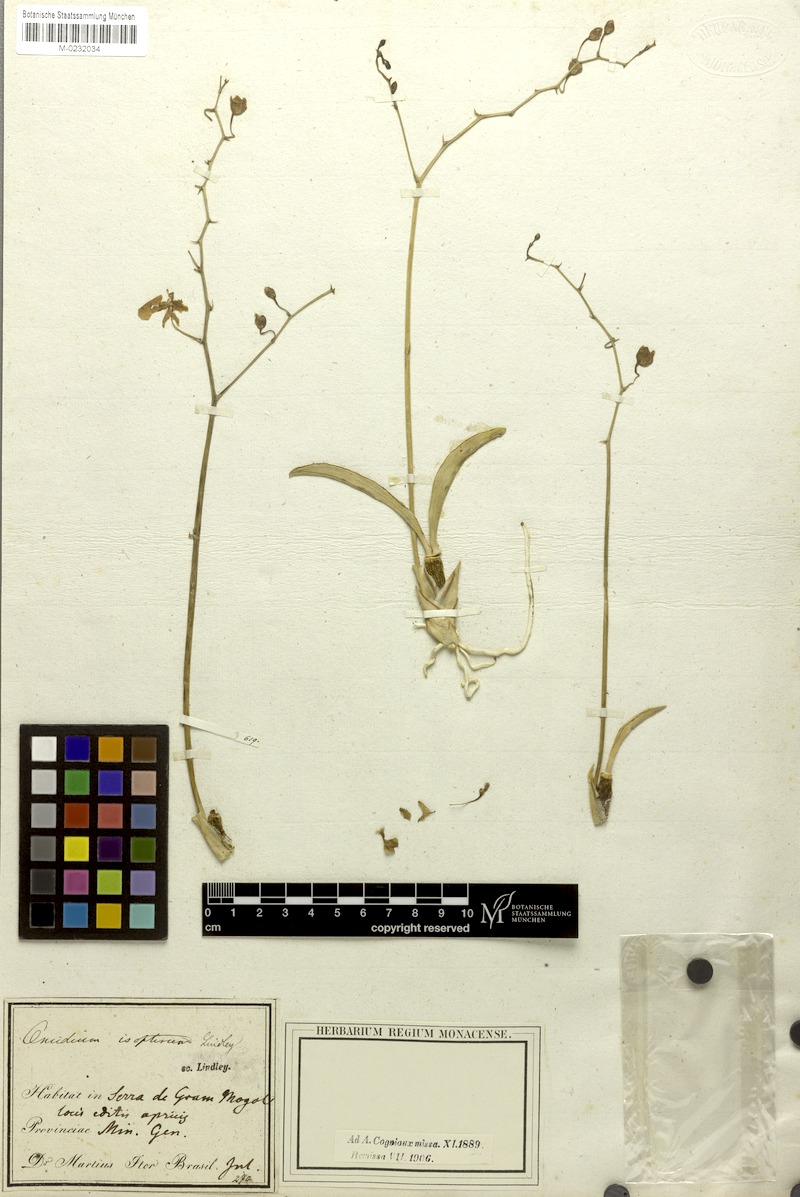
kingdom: Plantae
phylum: Tracheophyta
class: Liliopsida
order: Asparagales
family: Orchidaceae
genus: Gomesa
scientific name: Gomesa flexuosa
